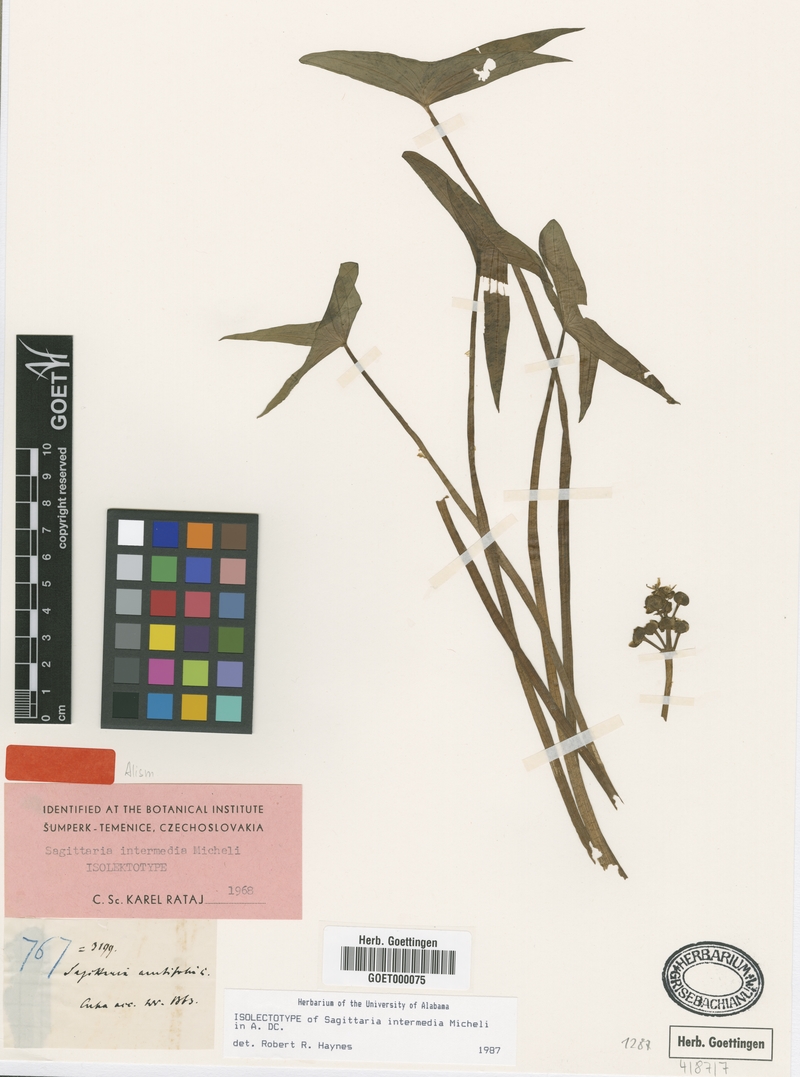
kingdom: Plantae
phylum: Tracheophyta
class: Liliopsida
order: Alismatales
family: Alismataceae
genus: Sagittaria
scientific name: Sagittaria intermedia
